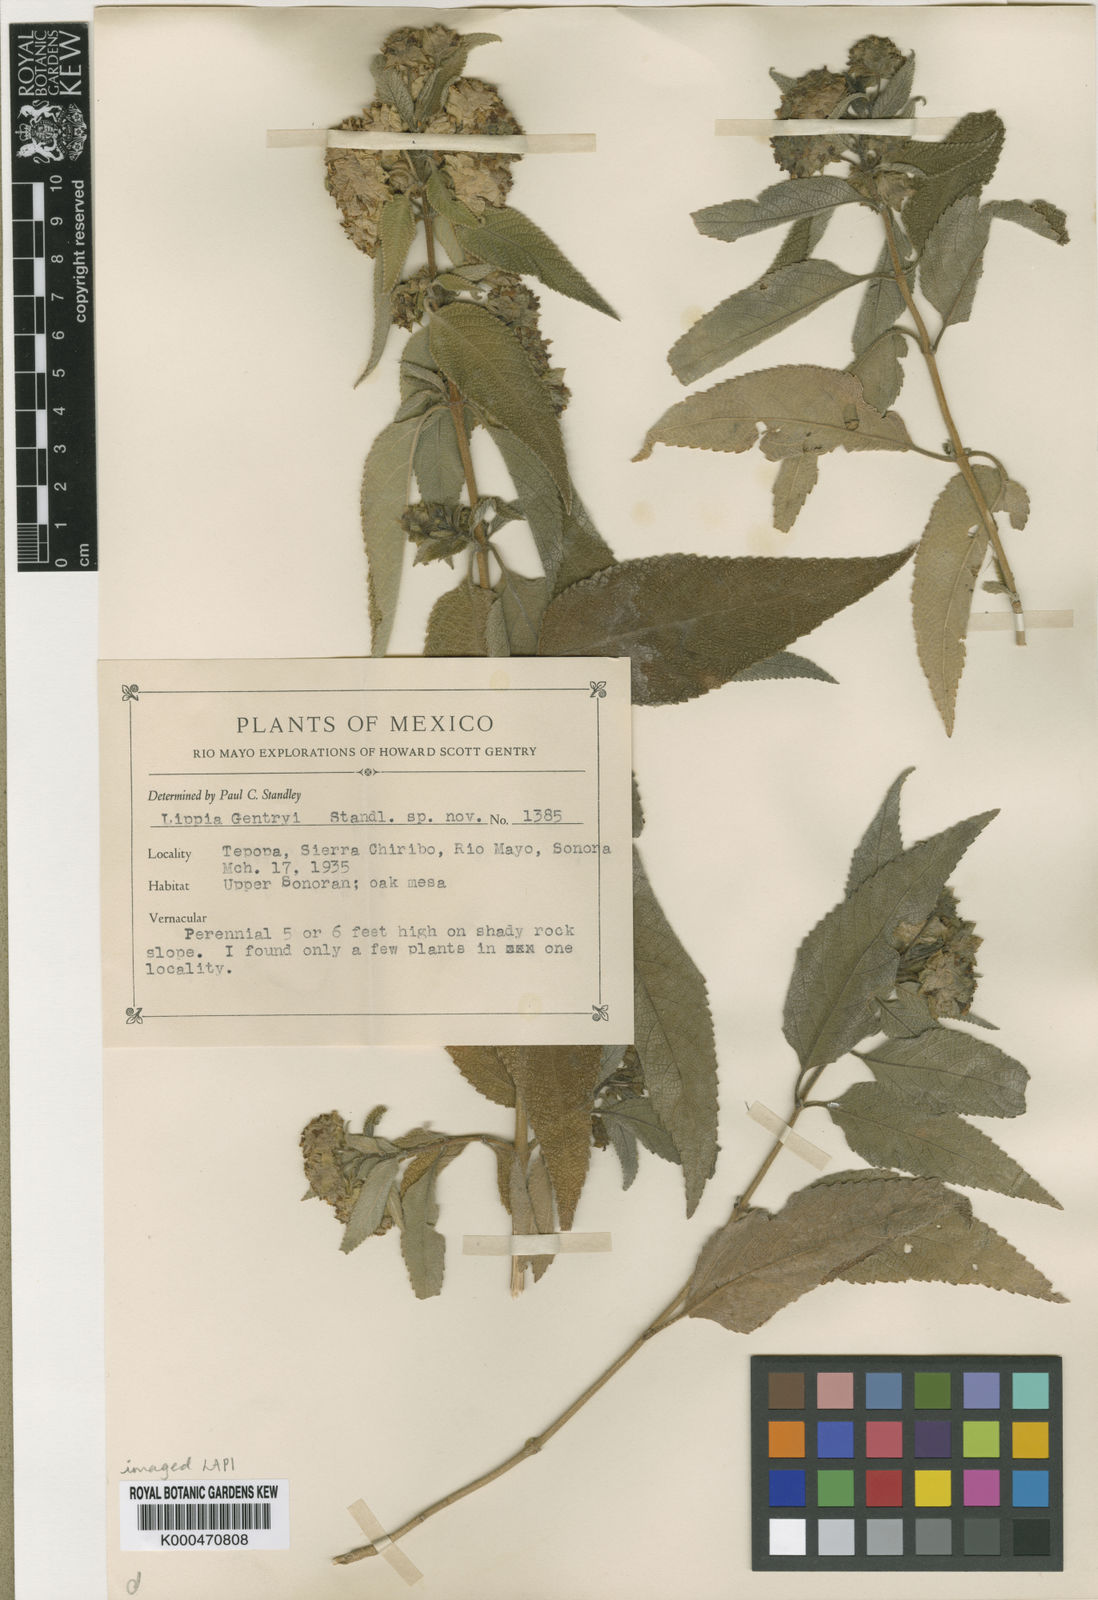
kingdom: Plantae
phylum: Tracheophyta
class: Magnoliopsida
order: Lamiales
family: Verbenaceae
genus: Lippia
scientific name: Lippia gentryi
